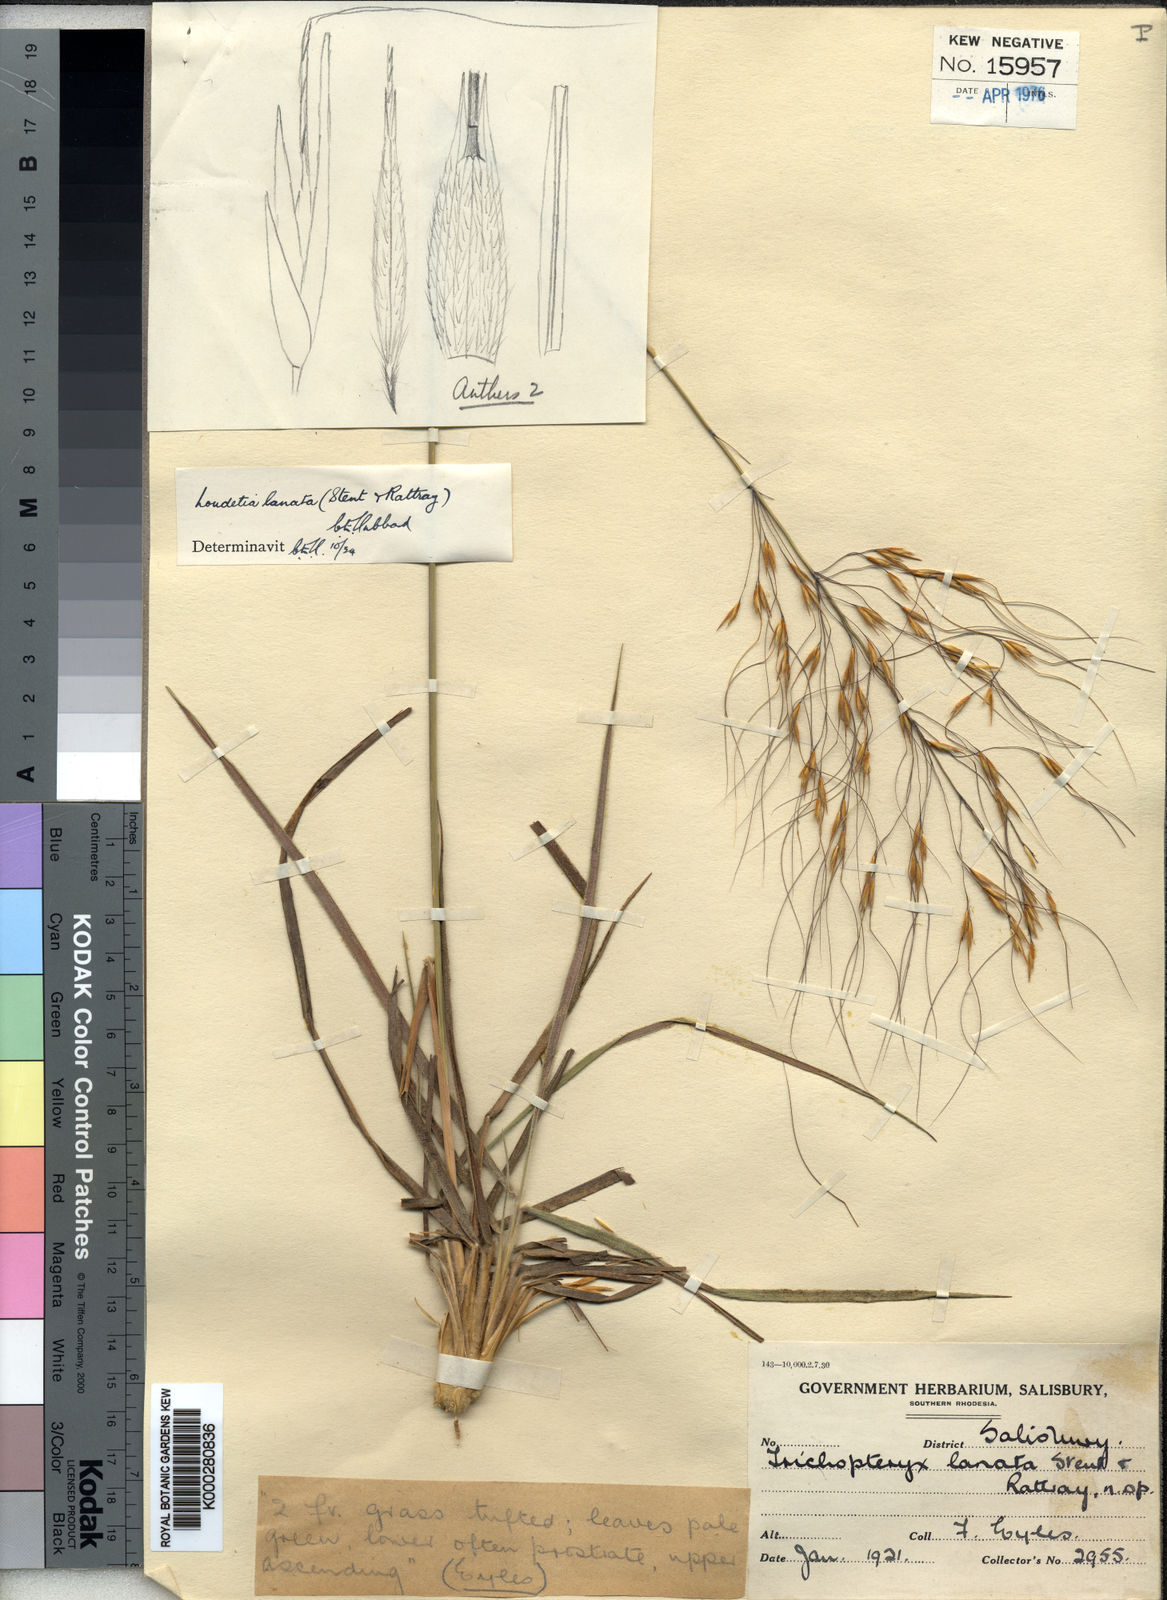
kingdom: Plantae
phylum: Tracheophyta
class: Liliopsida
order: Poales
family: Poaceae
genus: Loudetia
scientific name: Loudetia lanata
